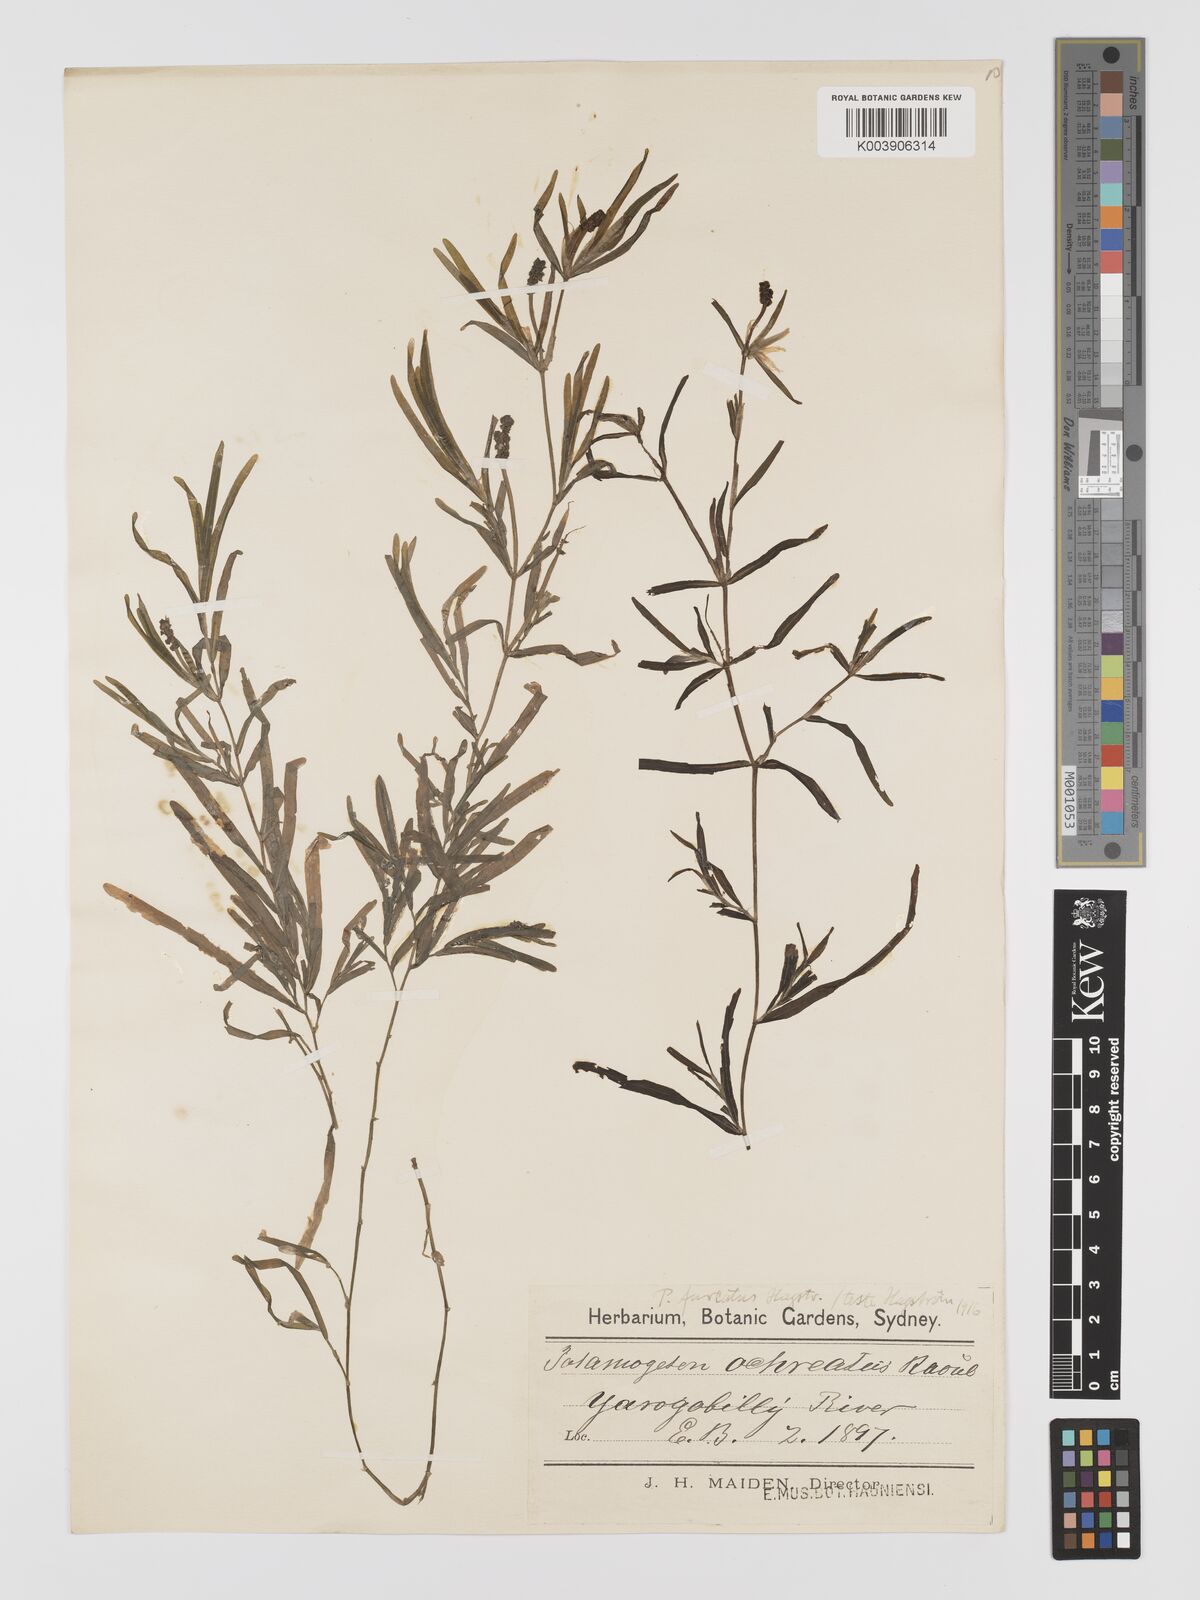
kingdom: Plantae
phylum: Tracheophyta
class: Liliopsida
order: Alismatales
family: Potamogetonaceae
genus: Potamogeton
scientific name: Potamogeton ochreatus
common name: Blunt pondweed
